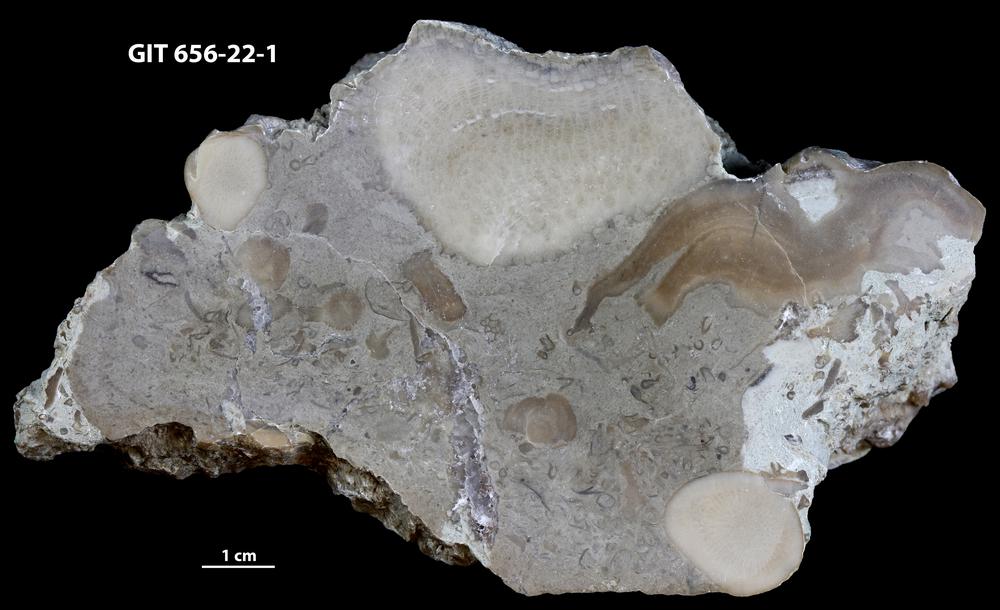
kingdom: Animalia
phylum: Porifera
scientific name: Porifera
